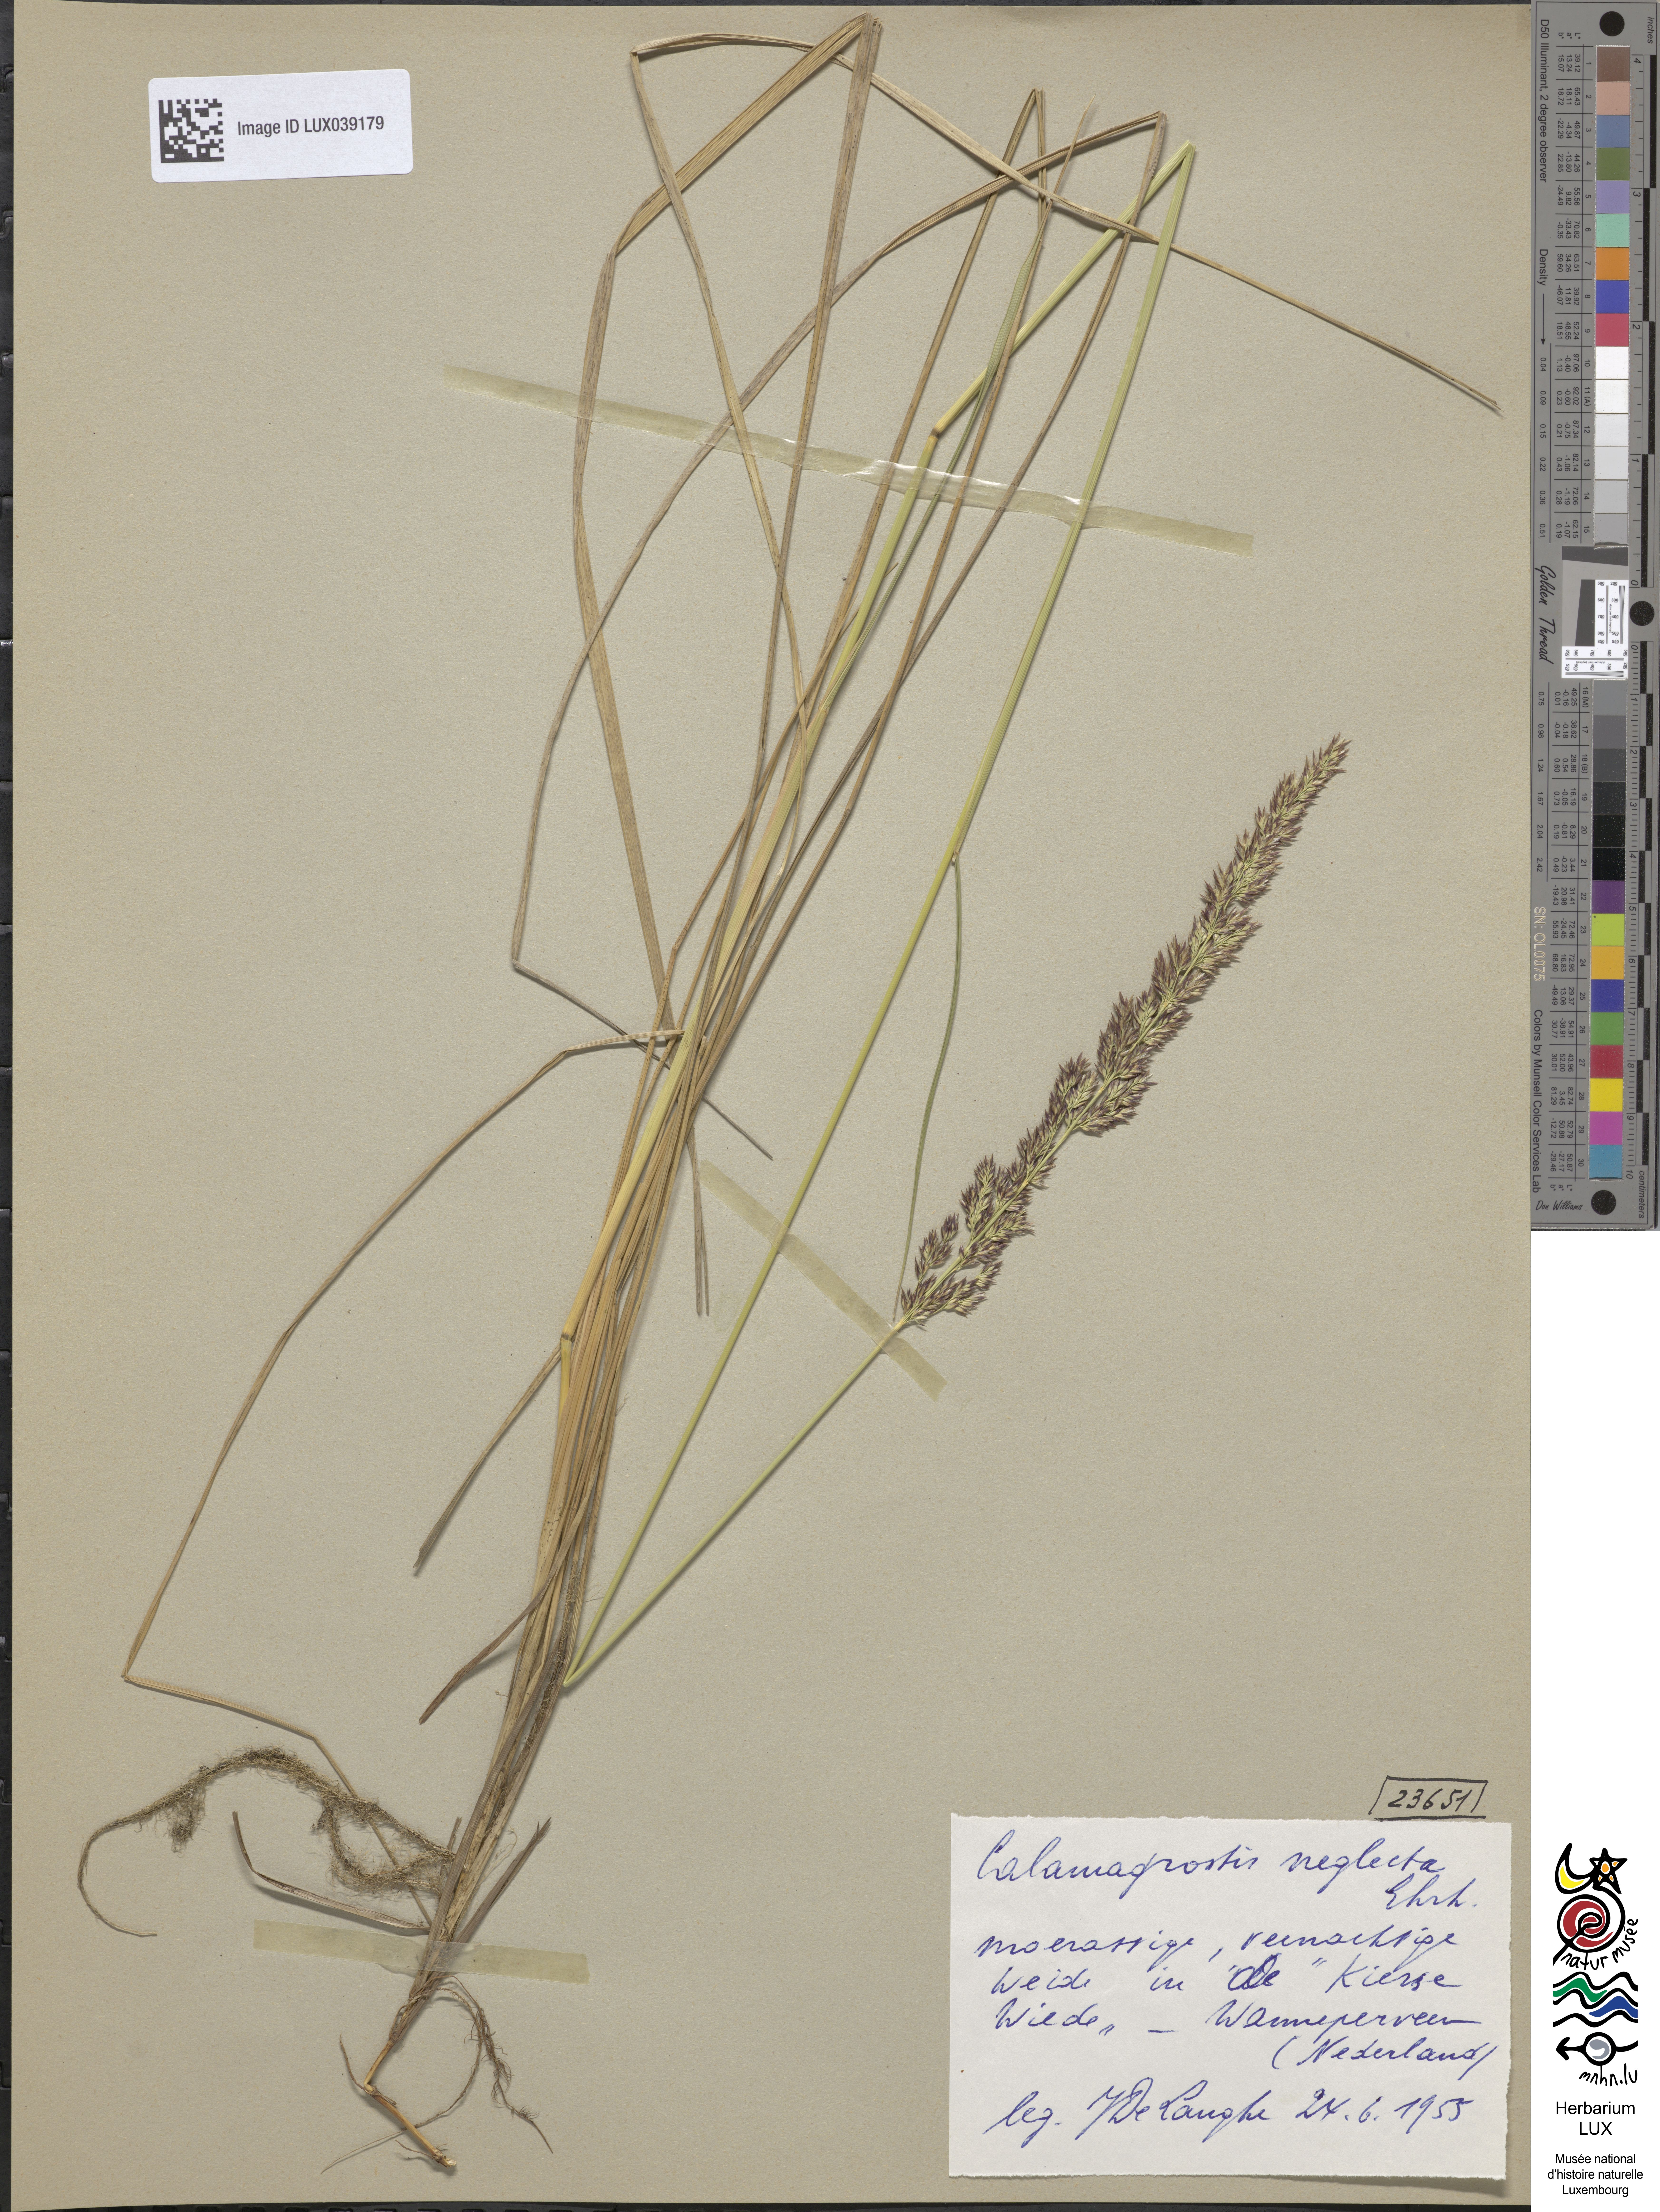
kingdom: Plantae
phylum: Tracheophyta
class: Liliopsida
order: Poales
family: Poaceae
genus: Calamagrostis
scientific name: Calamagrostis stricta
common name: Narrow small-reed
